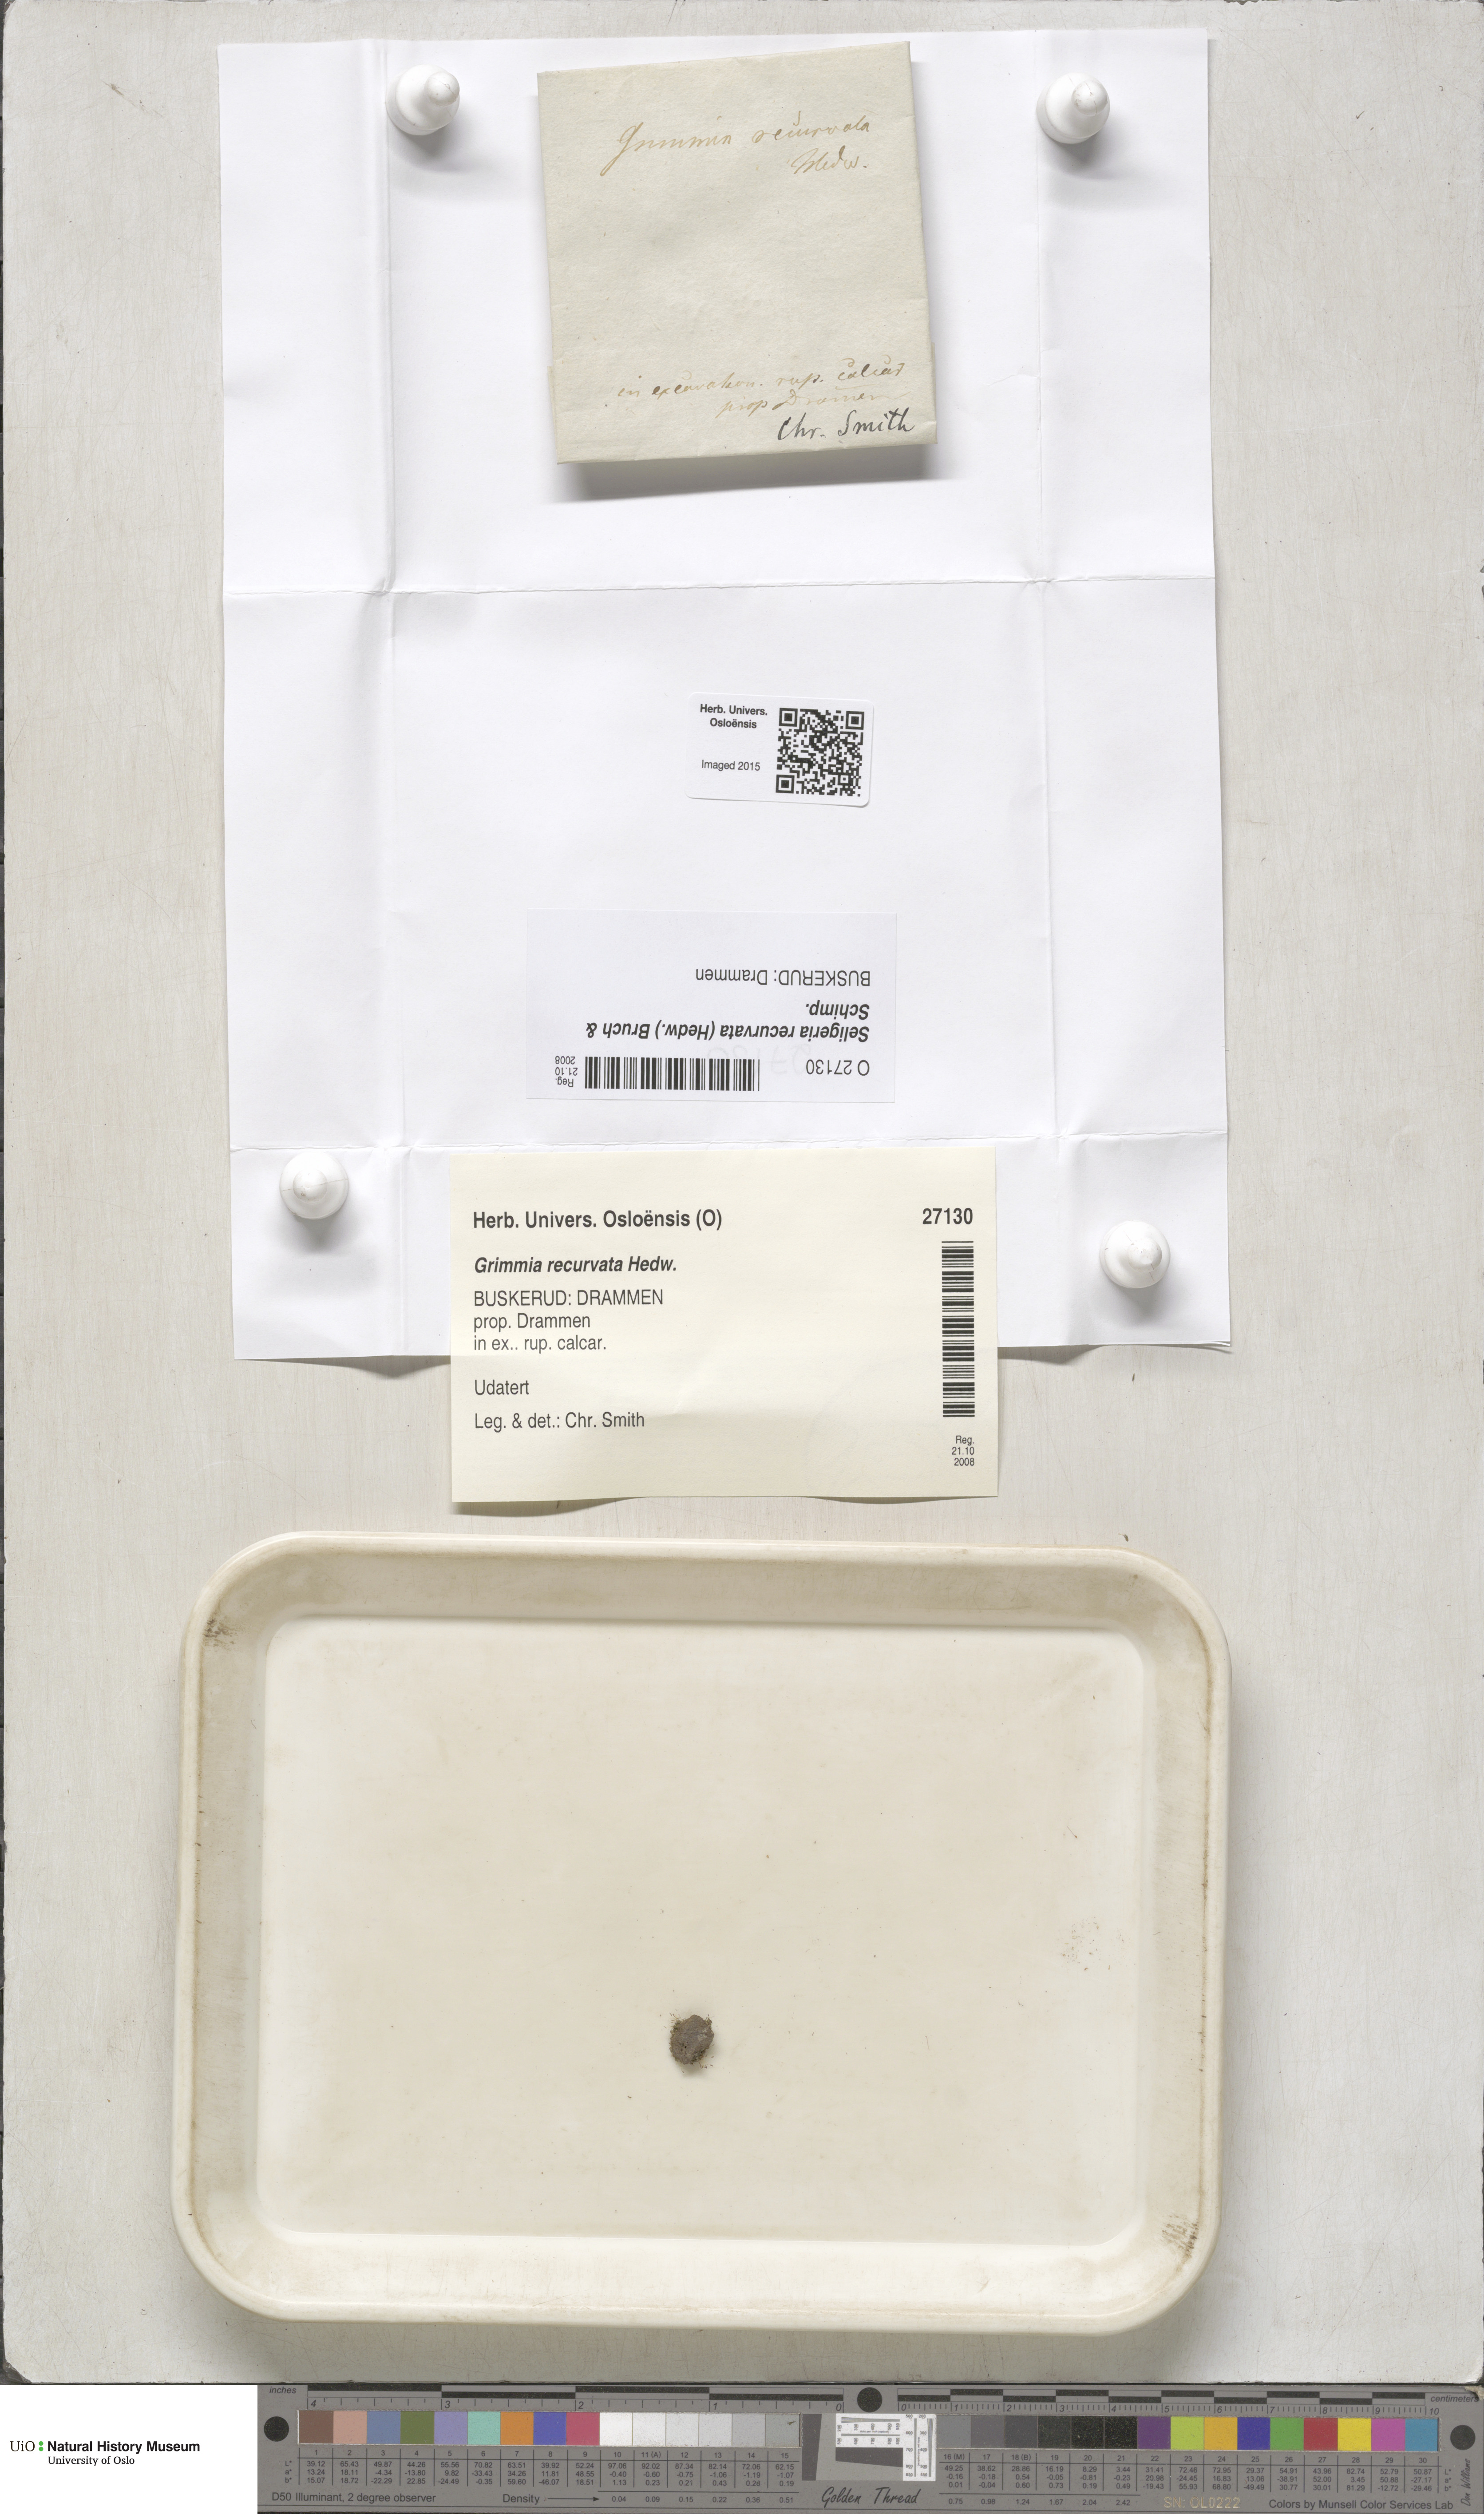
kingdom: Plantae
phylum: Bryophyta
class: Bryopsida
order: Grimmiales
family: Seligeriaceae
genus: Blindiadelphus
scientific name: Blindiadelphus recurvatus
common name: Recurved rock-bristle
